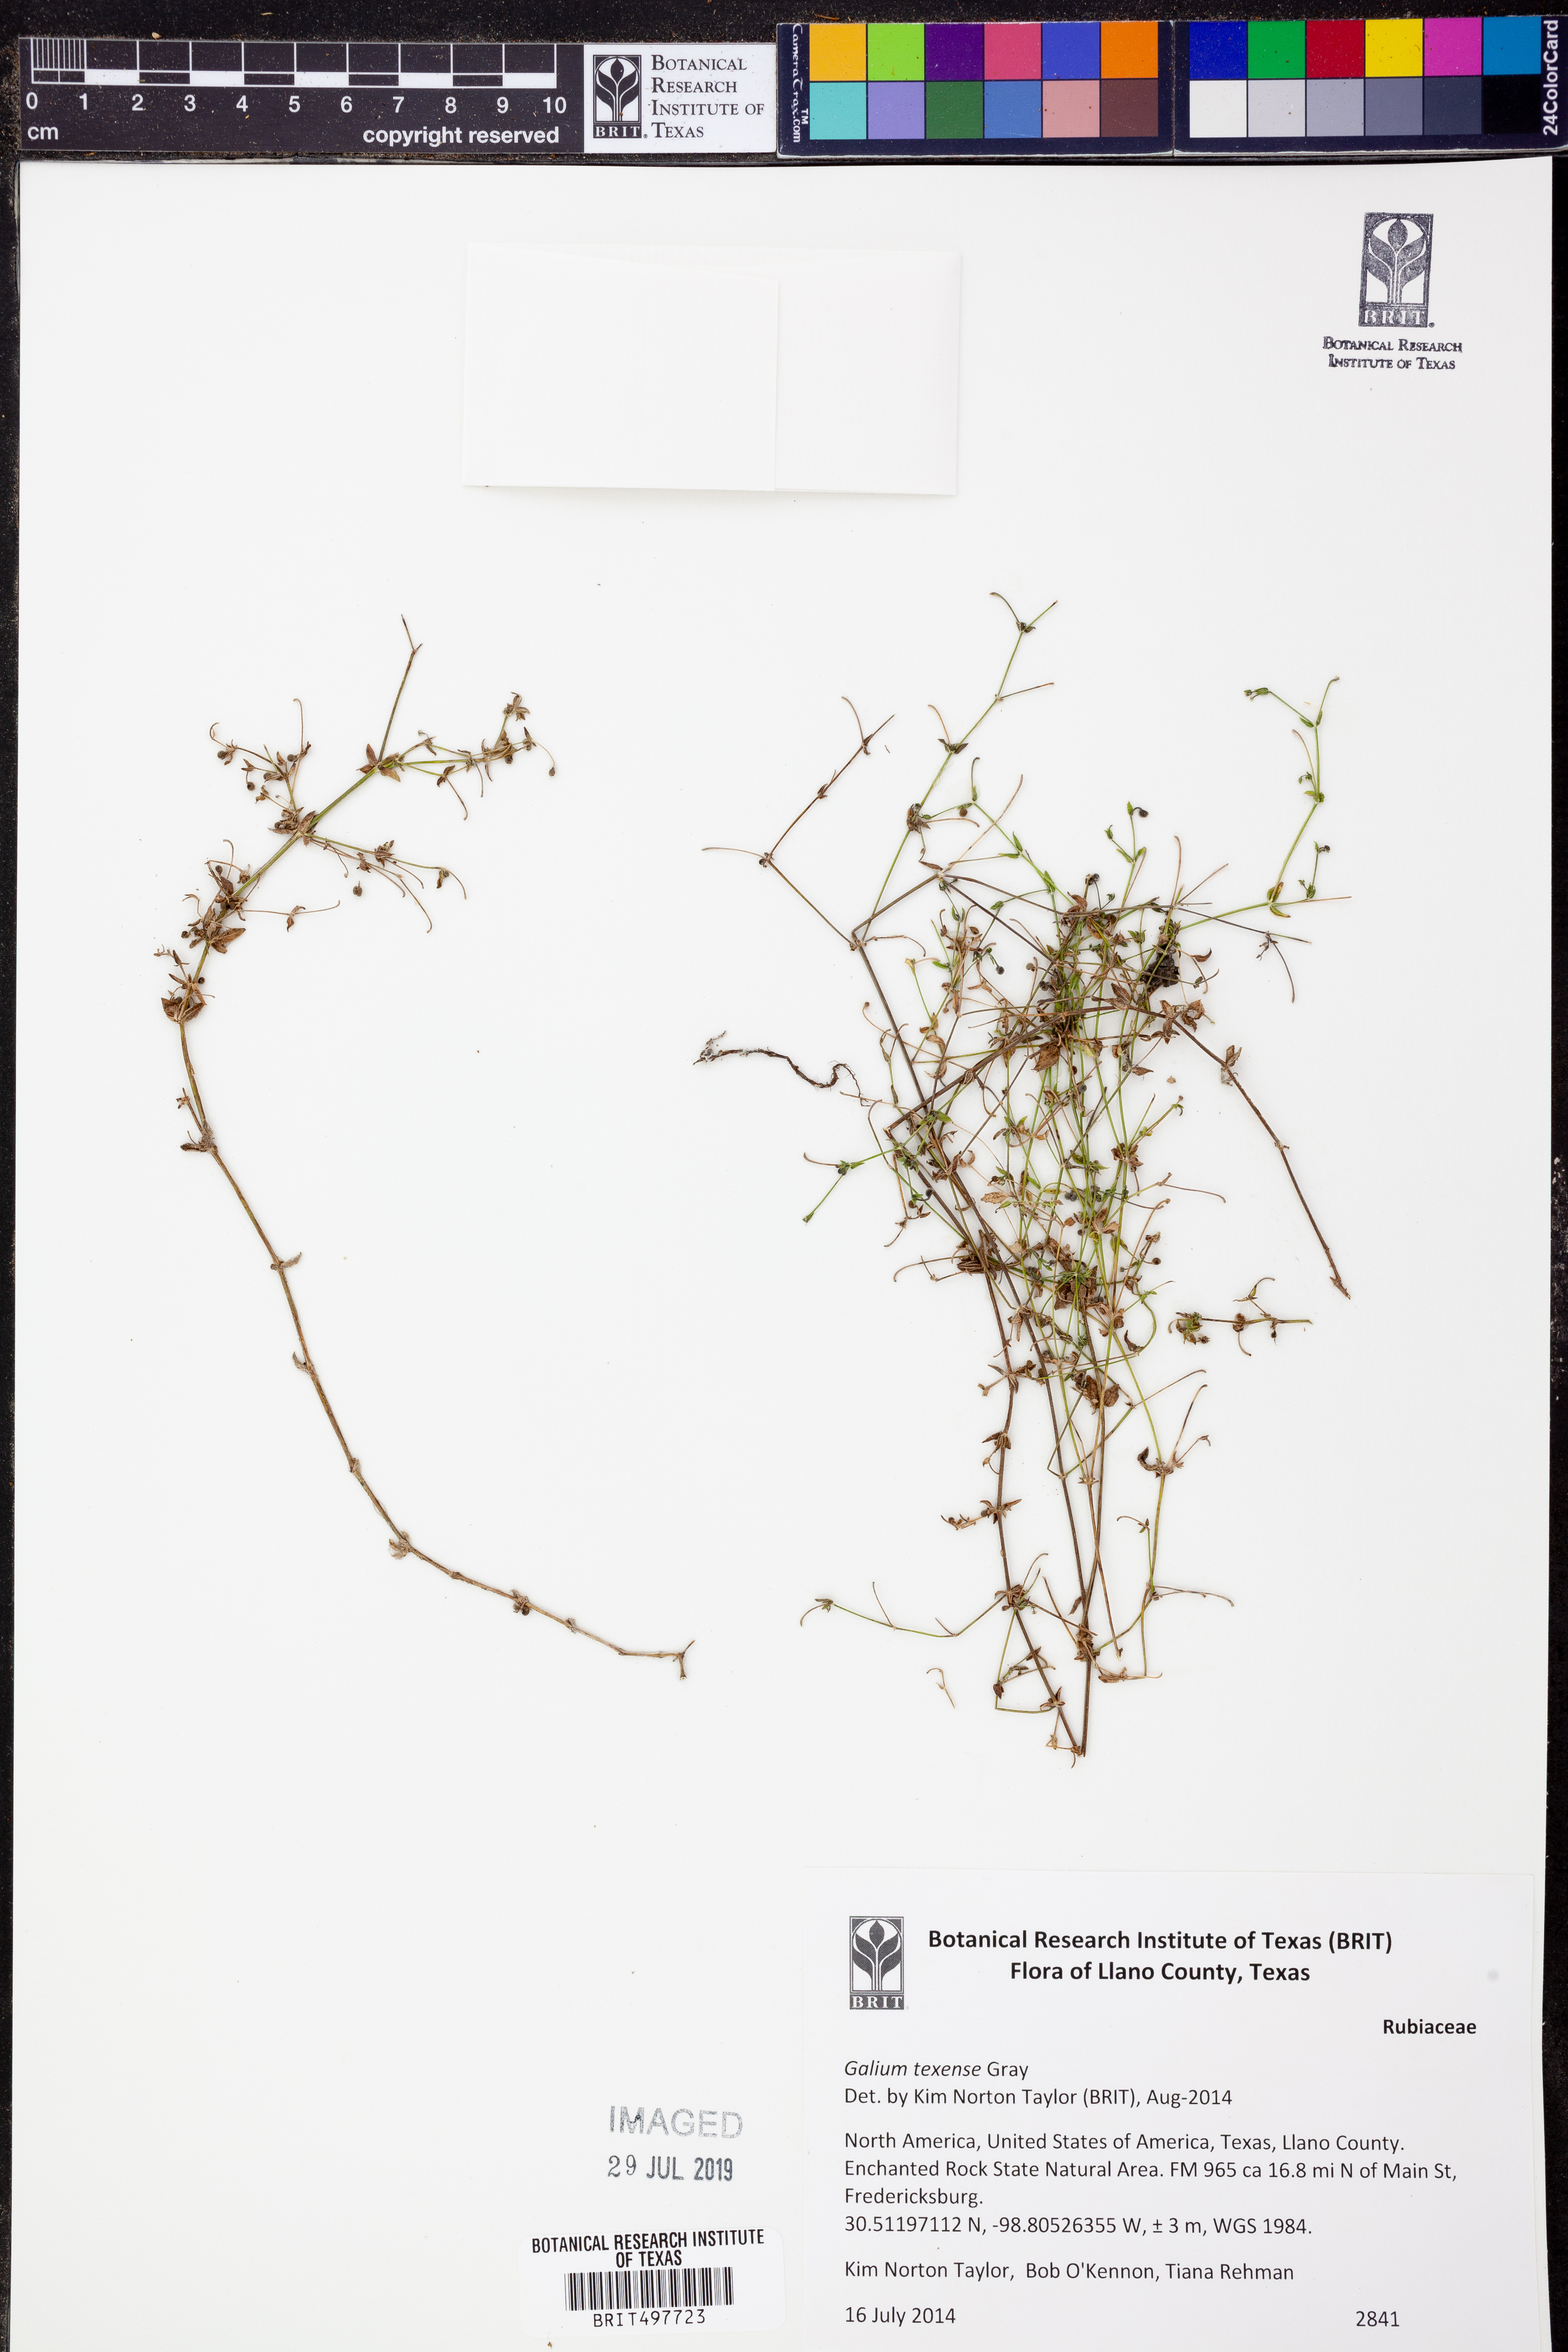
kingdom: Plantae
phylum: Tracheophyta
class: Magnoliopsida
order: Gentianales
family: Rubiaceae
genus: Galium
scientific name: Galium texense
